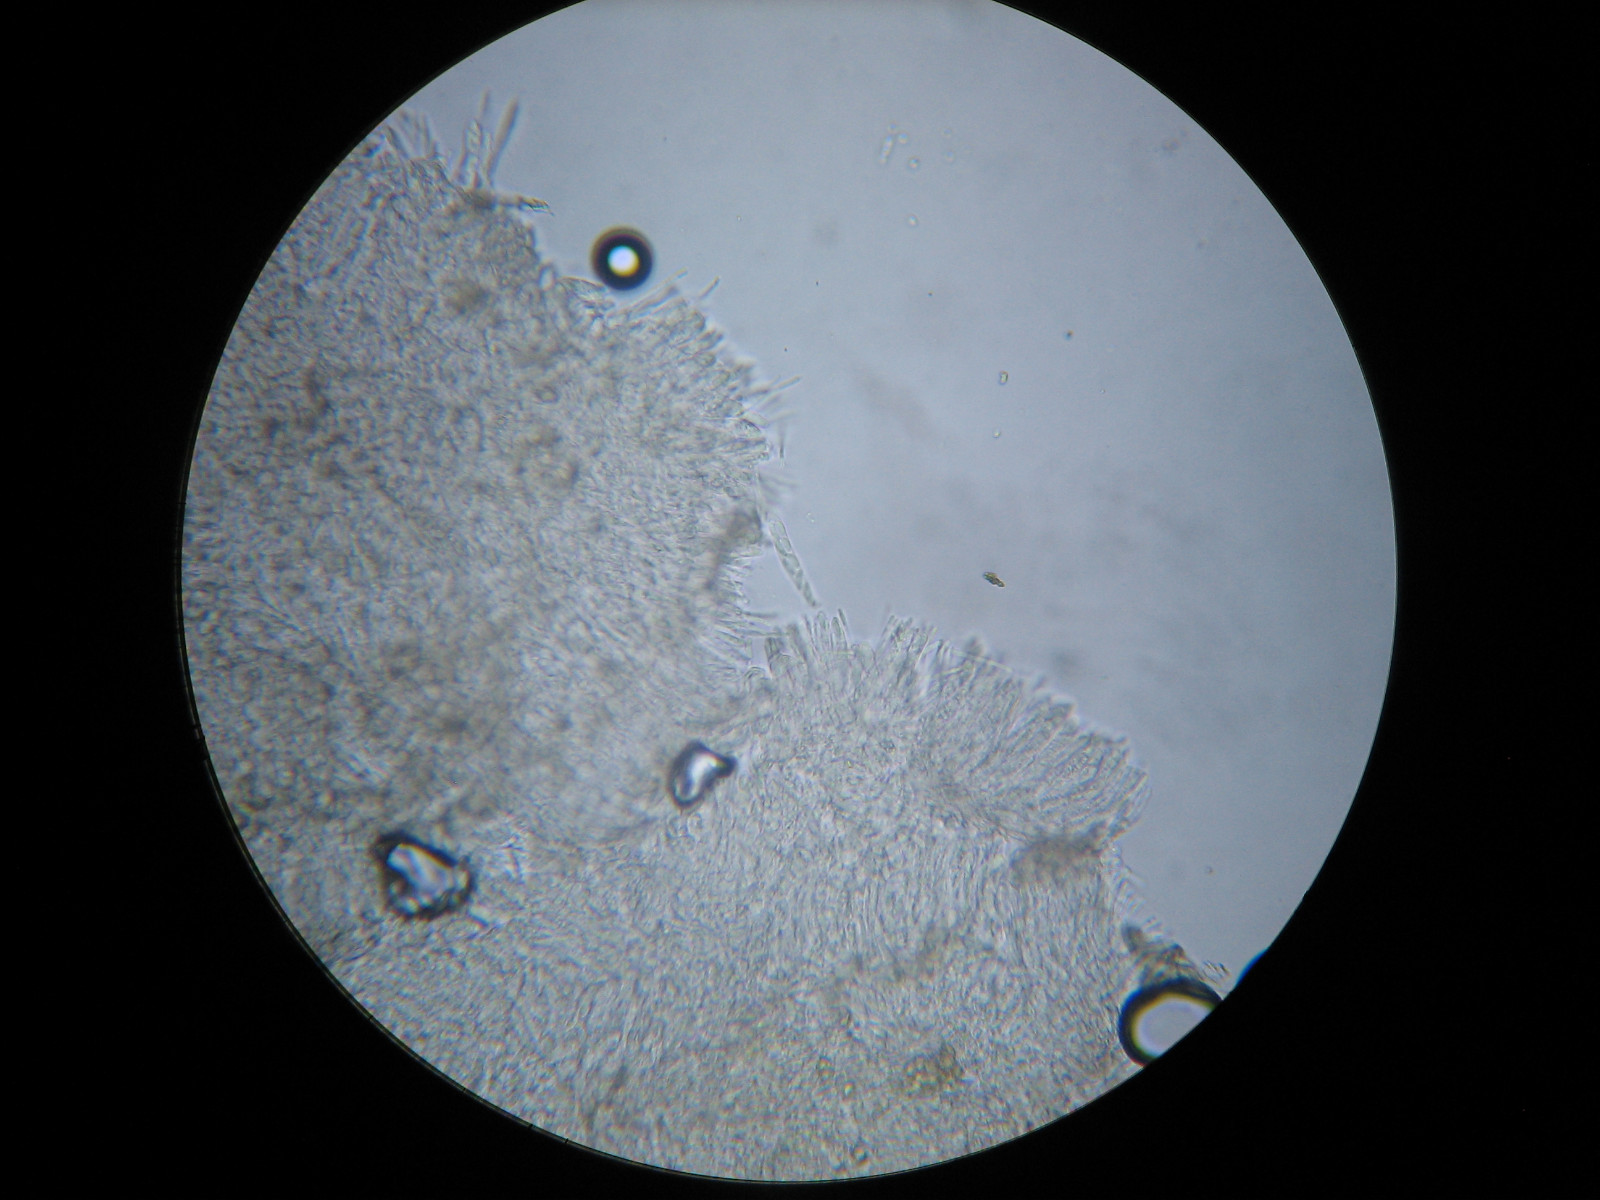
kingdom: Fungi
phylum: Ascomycota
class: Leotiomycetes
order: Helotiales
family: Hyaloscyphaceae
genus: Eupezizella
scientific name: Eupezizella aureliella
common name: almindelig klarskive
